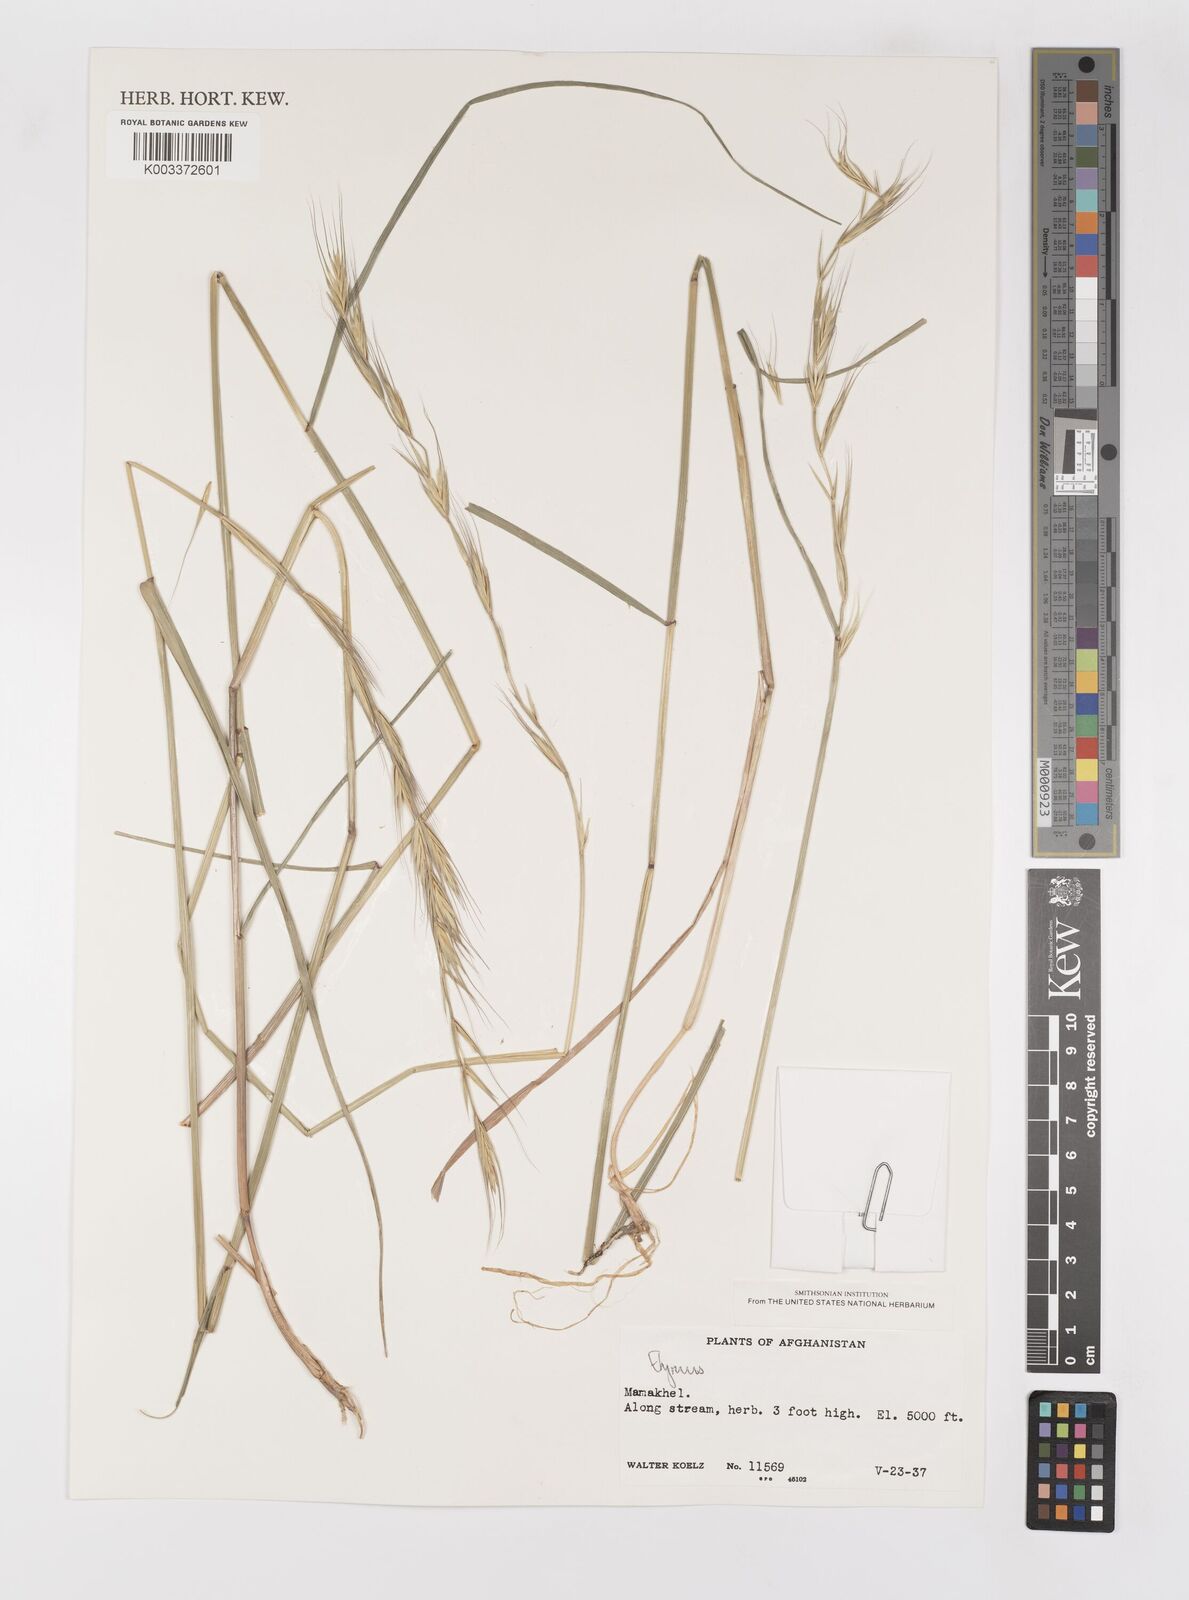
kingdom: Plantae
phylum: Tracheophyta
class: Liliopsida
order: Poales
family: Poaceae
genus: Elymus
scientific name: Elymus
